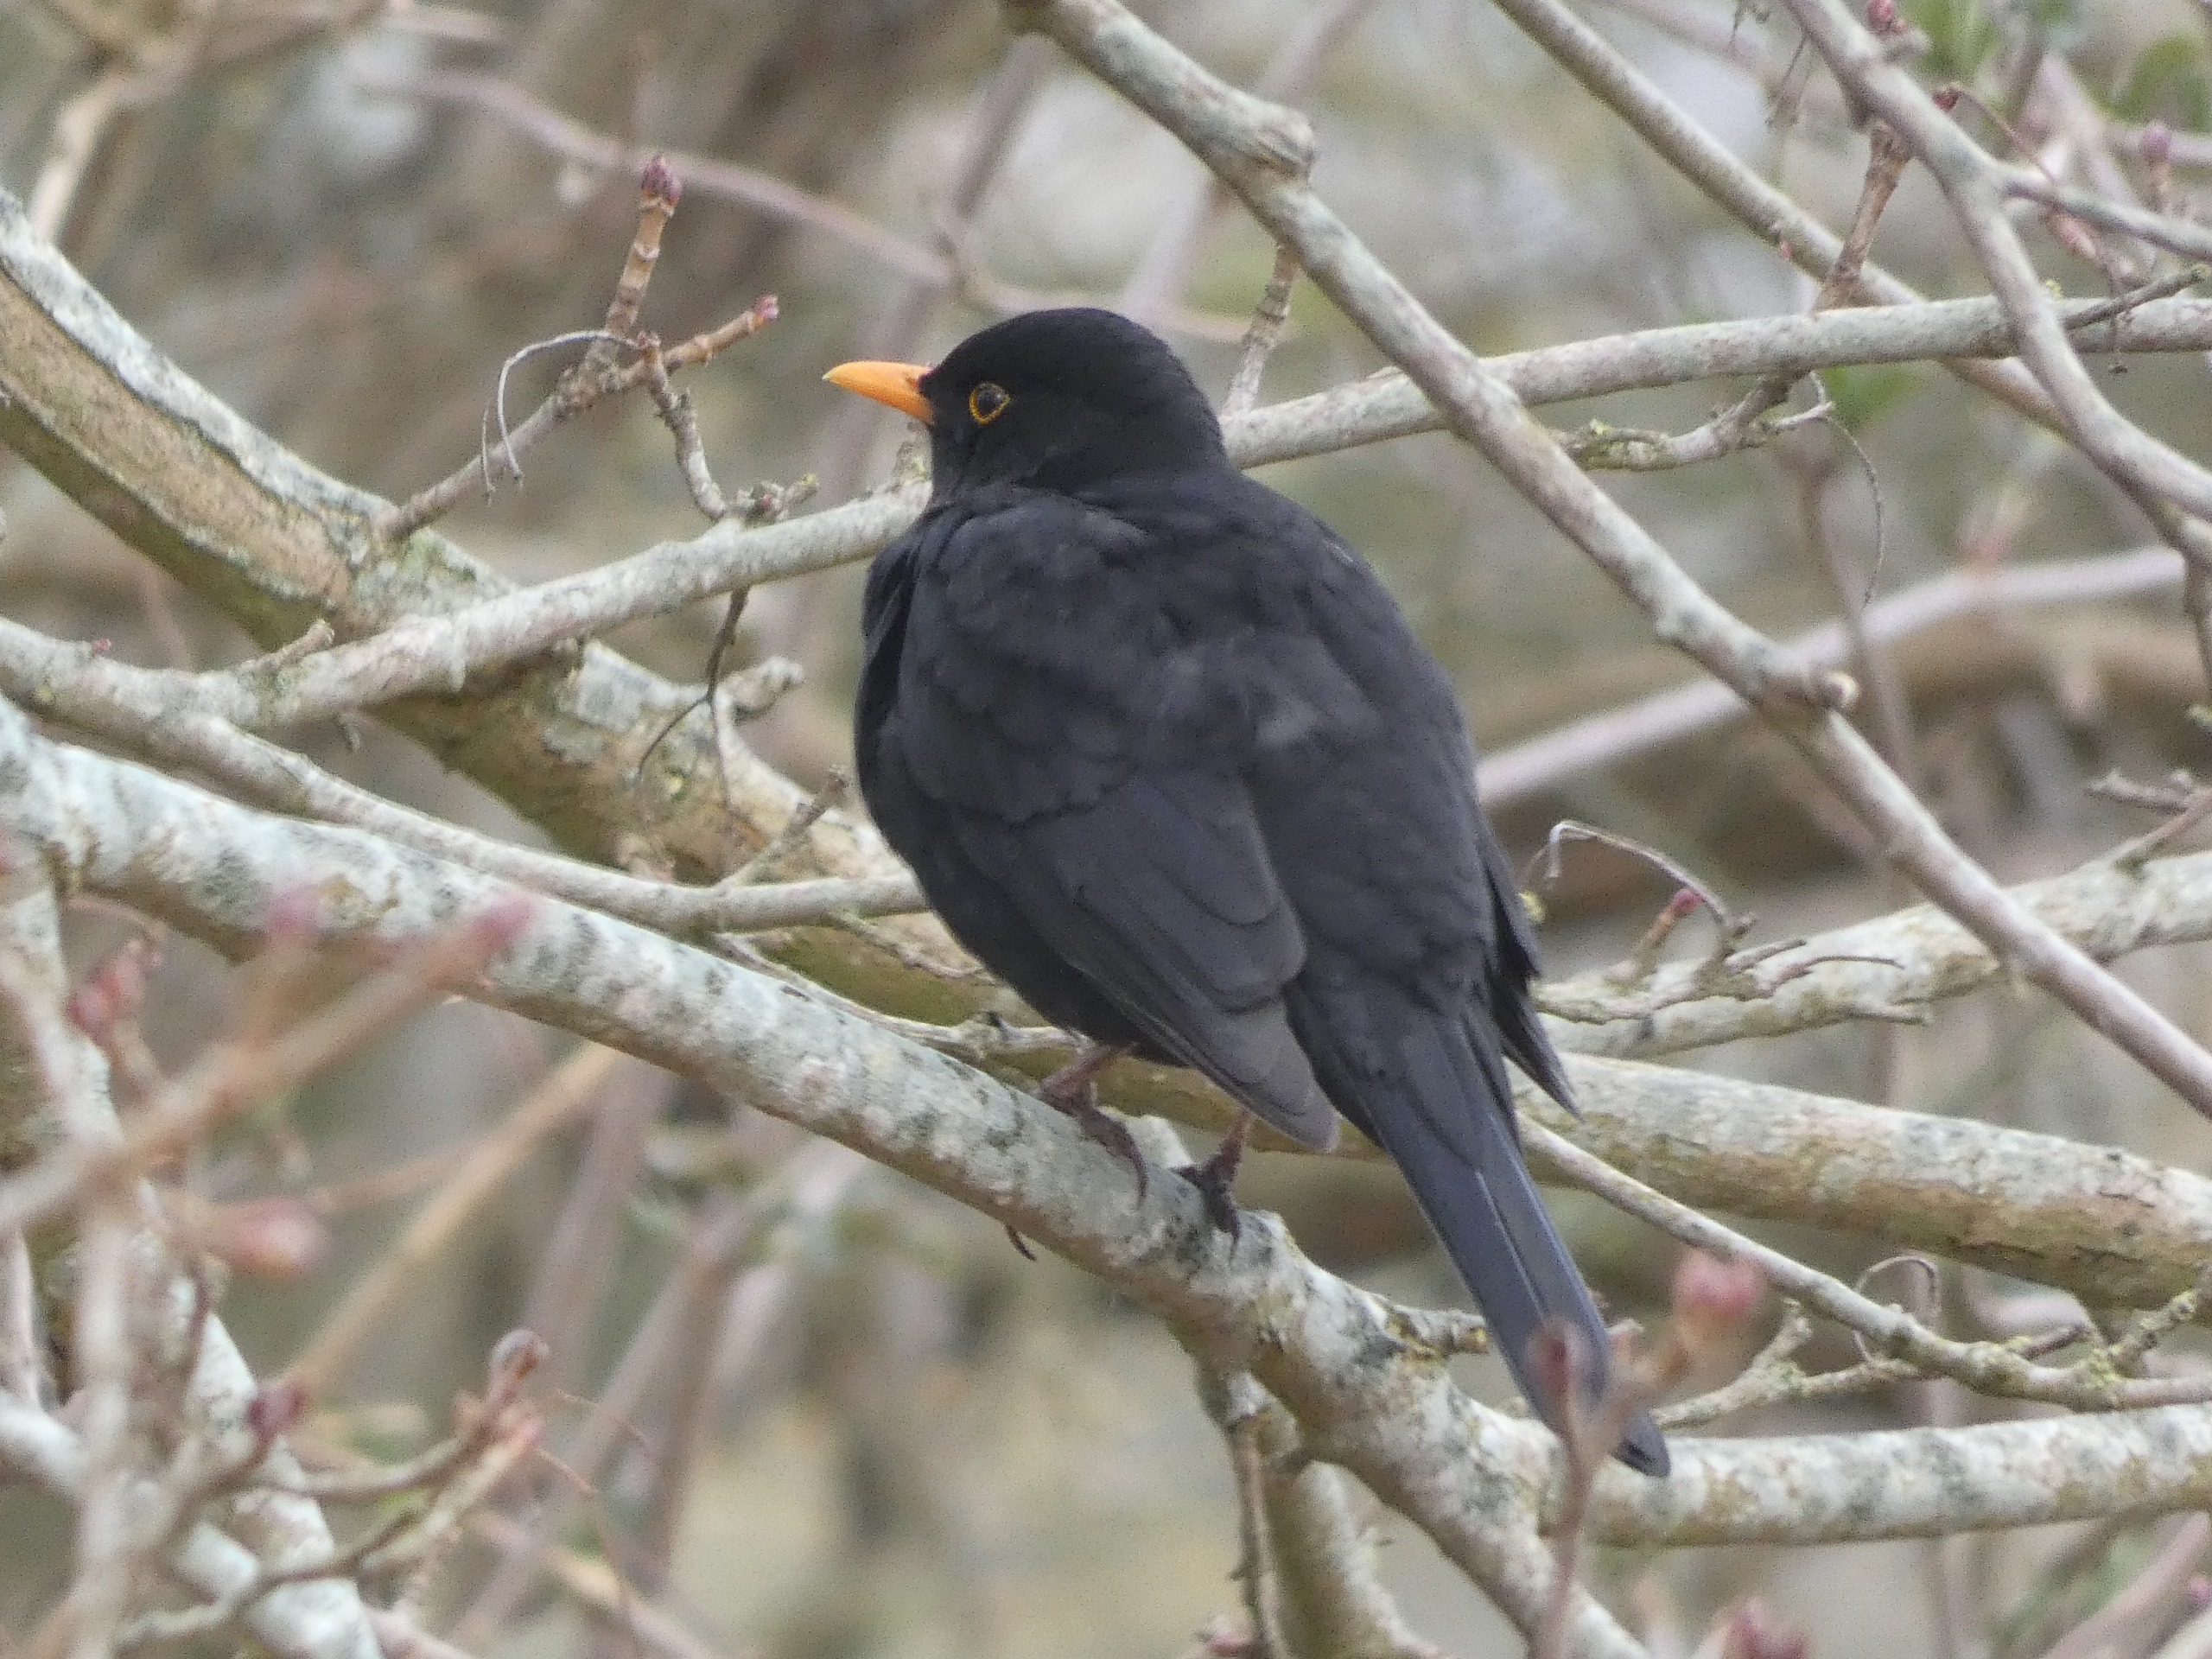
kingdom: Animalia
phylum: Chordata
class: Aves
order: Passeriformes
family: Turdidae
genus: Turdus
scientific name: Turdus merula
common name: Solsort
